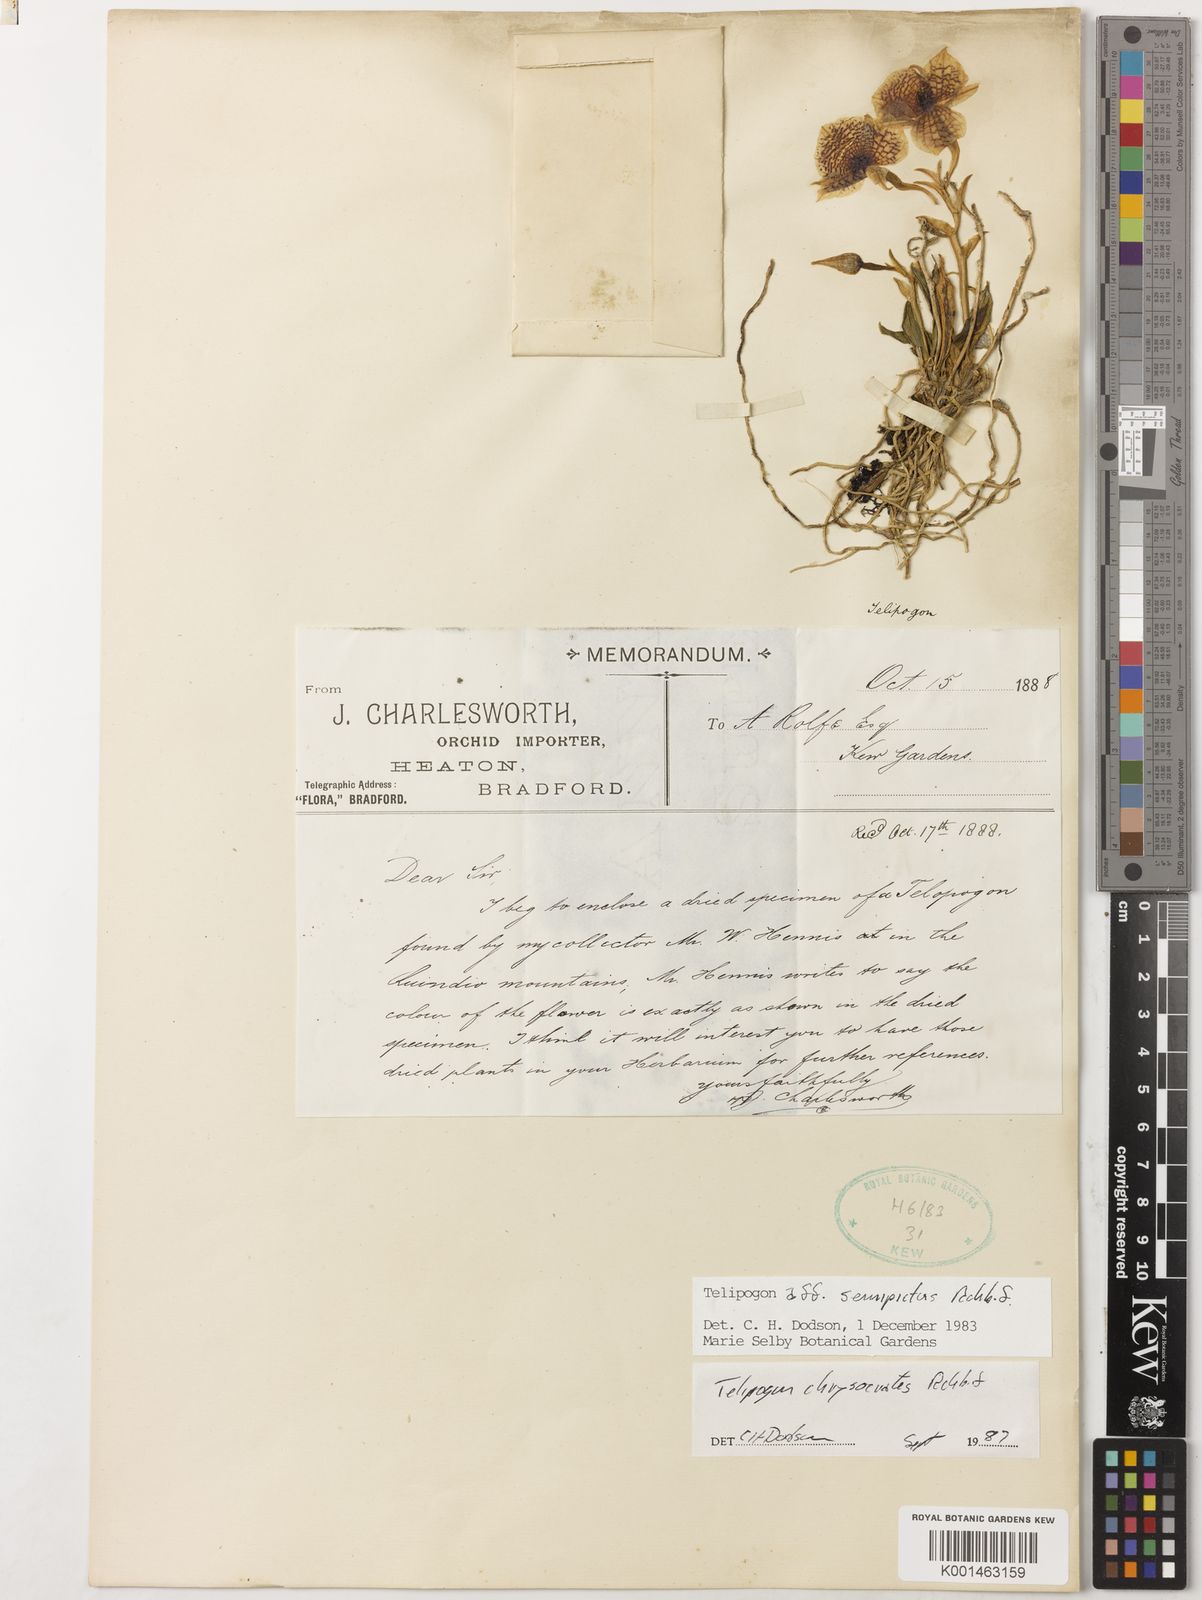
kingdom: Plantae
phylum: Tracheophyta
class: Liliopsida
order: Asparagales
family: Orchidaceae
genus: Telipogon
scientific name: Telipogon chrysocrates
